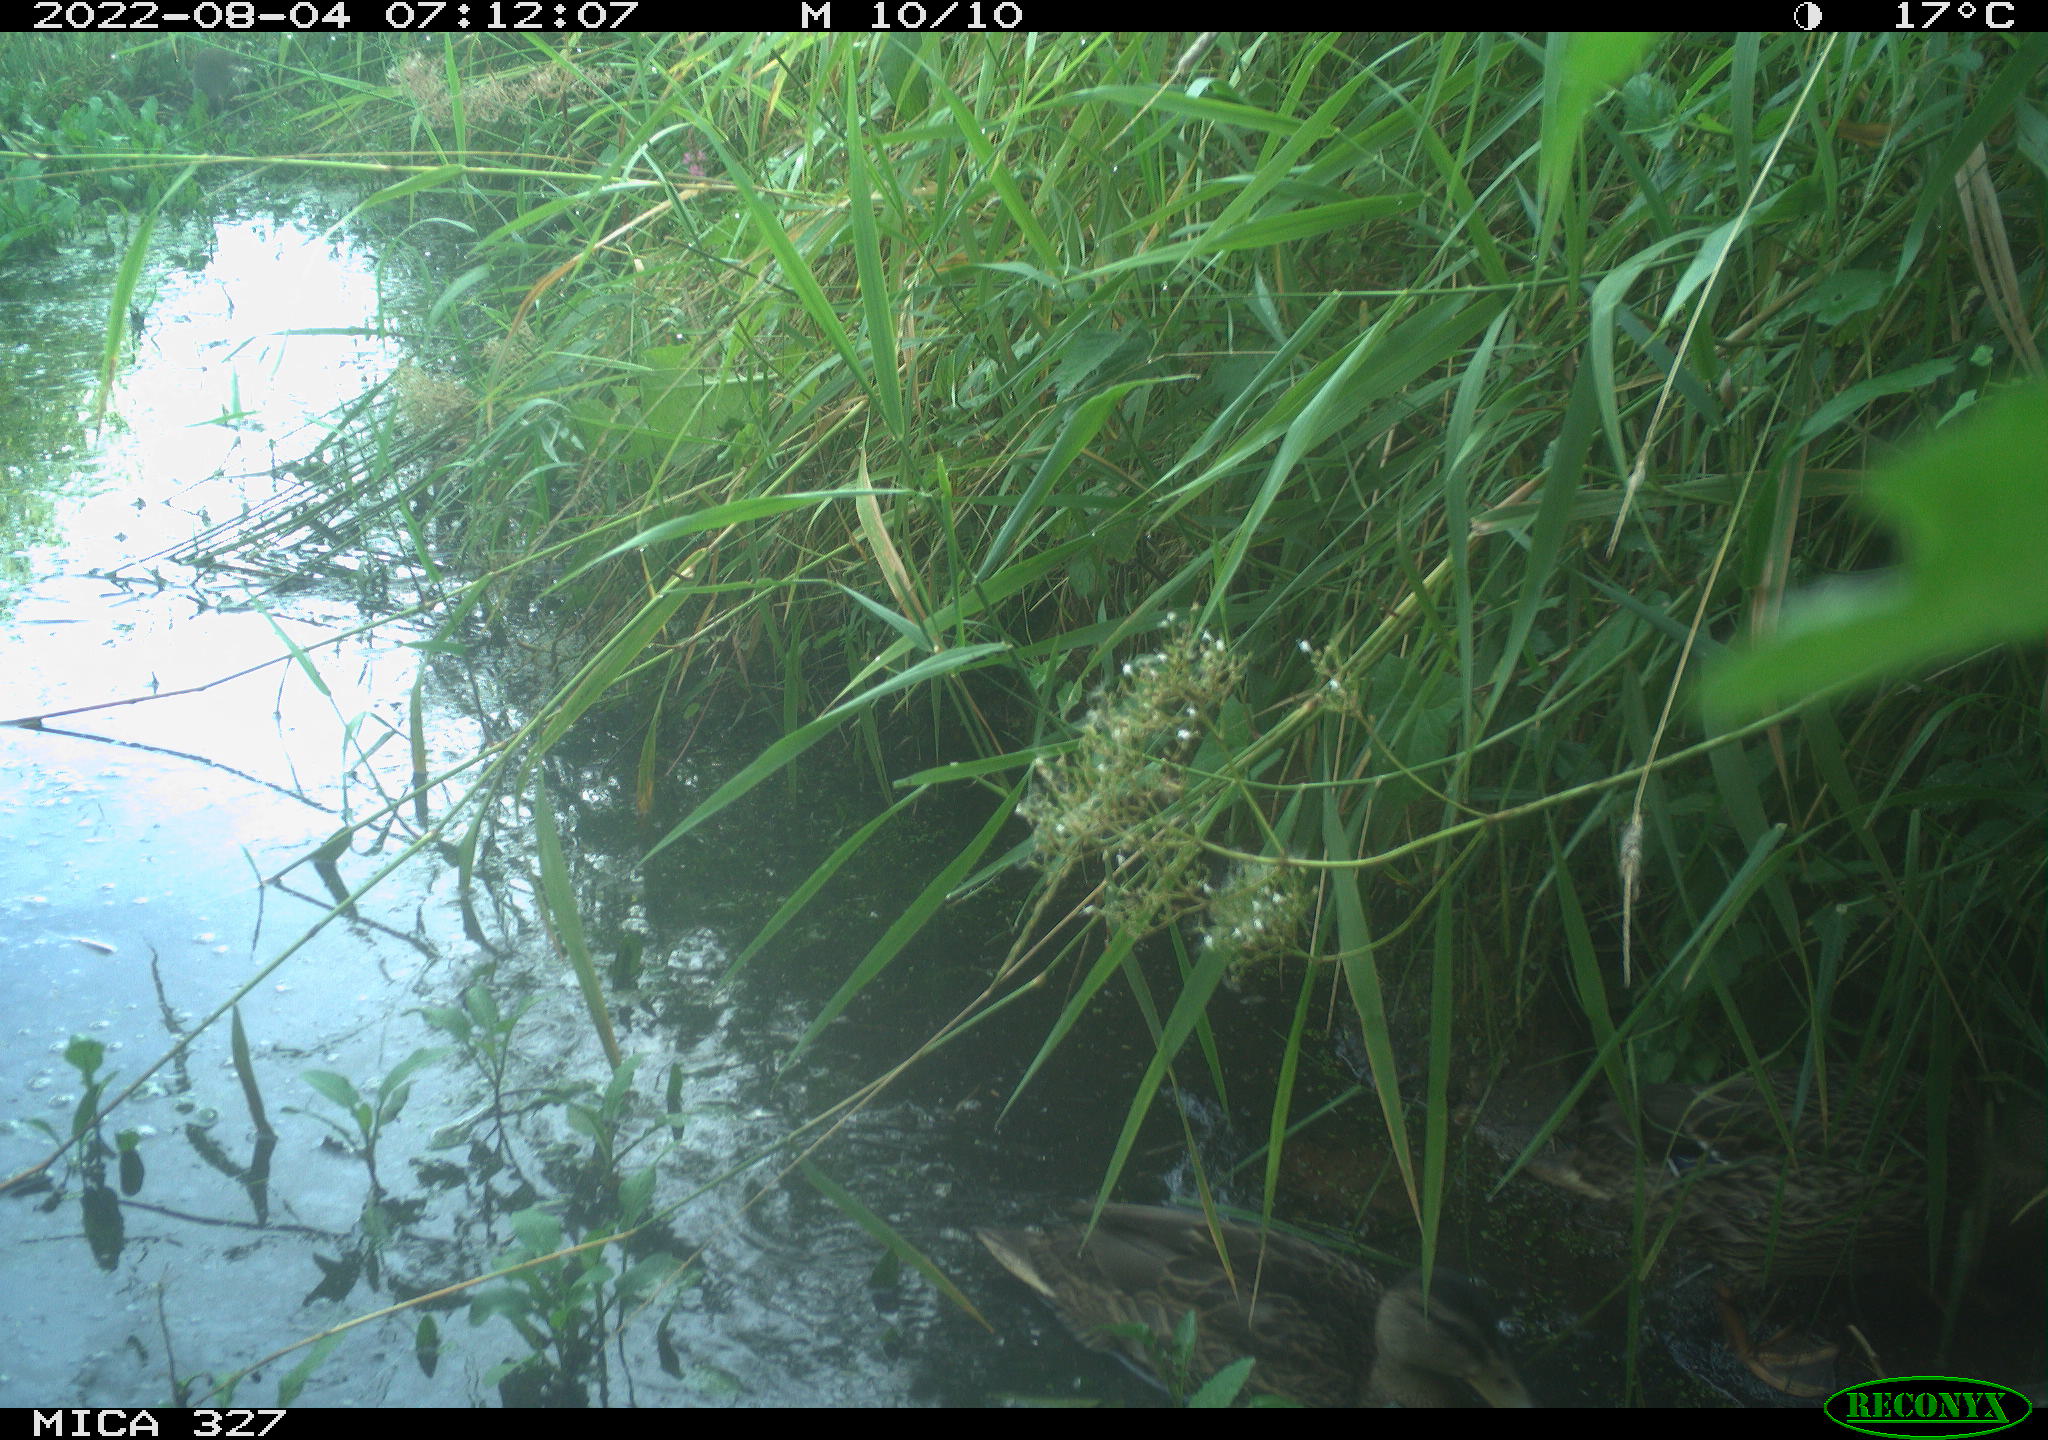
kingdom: Animalia
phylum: Chordata
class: Aves
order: Anseriformes
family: Anatidae
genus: Anas
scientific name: Anas
